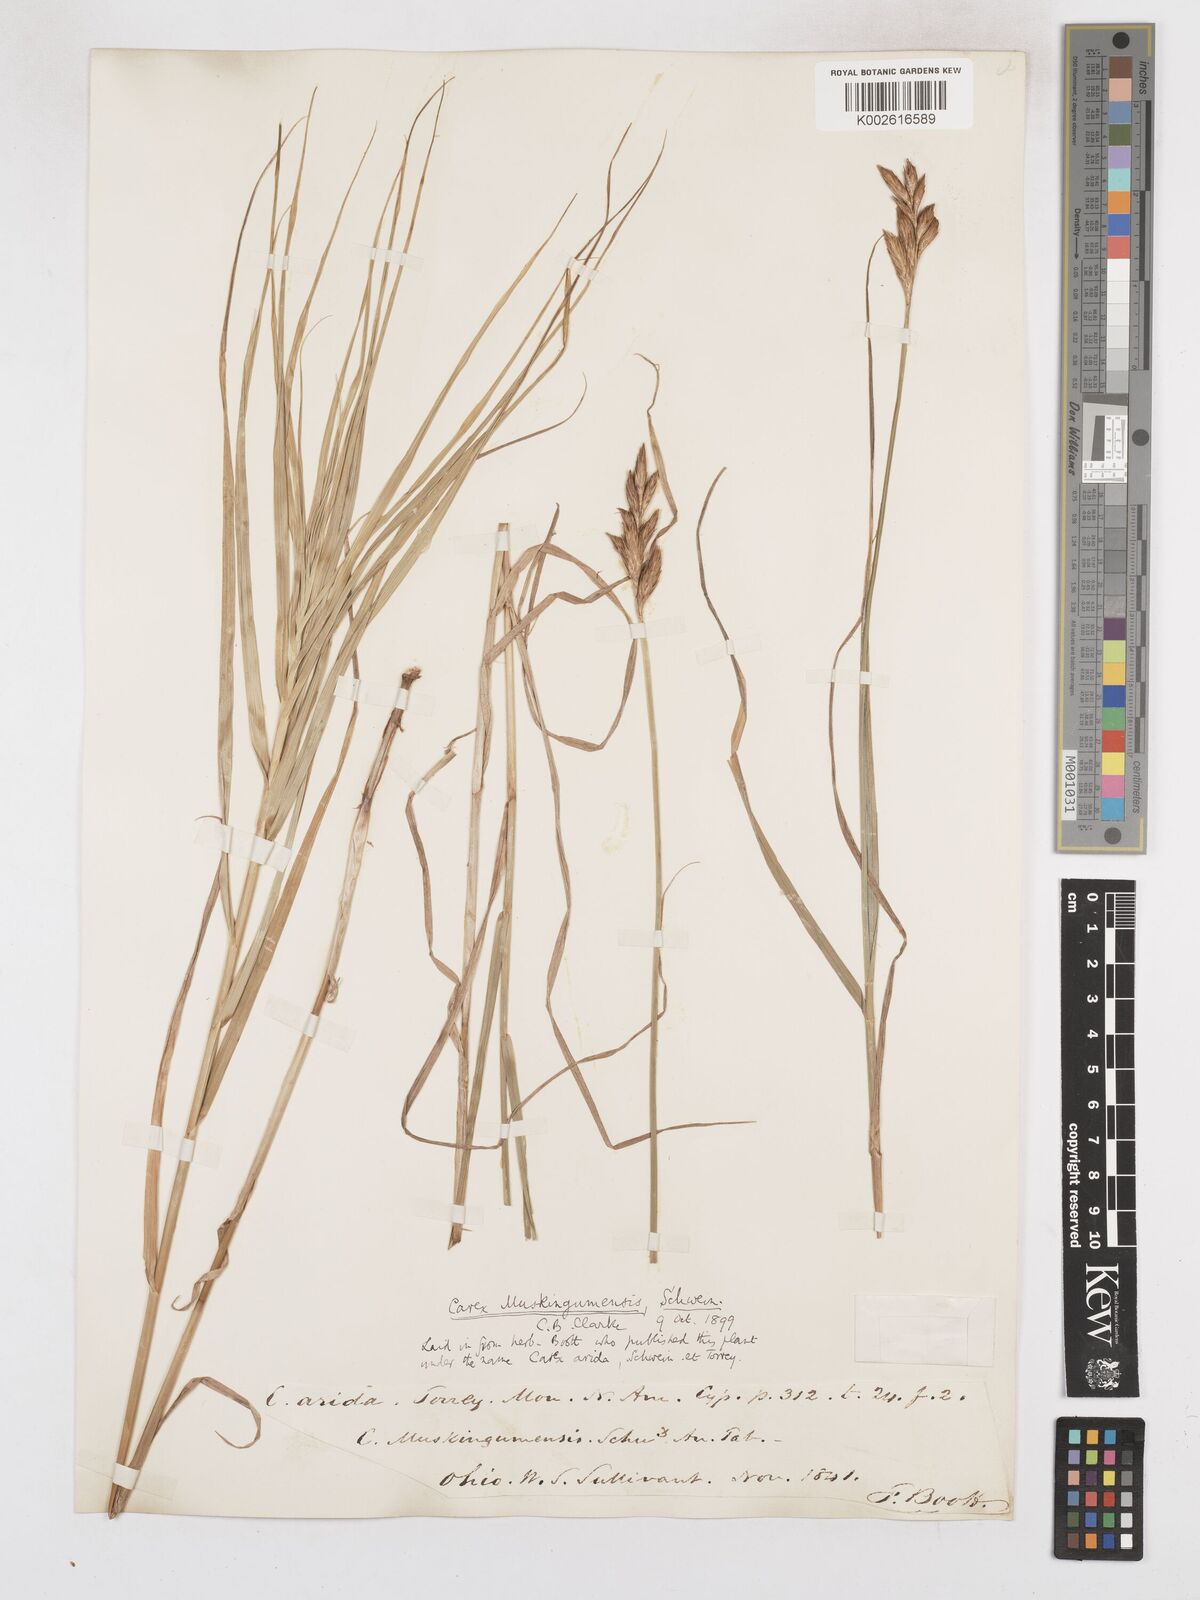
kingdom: Plantae
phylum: Tracheophyta
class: Liliopsida
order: Poales
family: Cyperaceae
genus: Carex
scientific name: Carex muskingumensis
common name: Muskingum sedge
